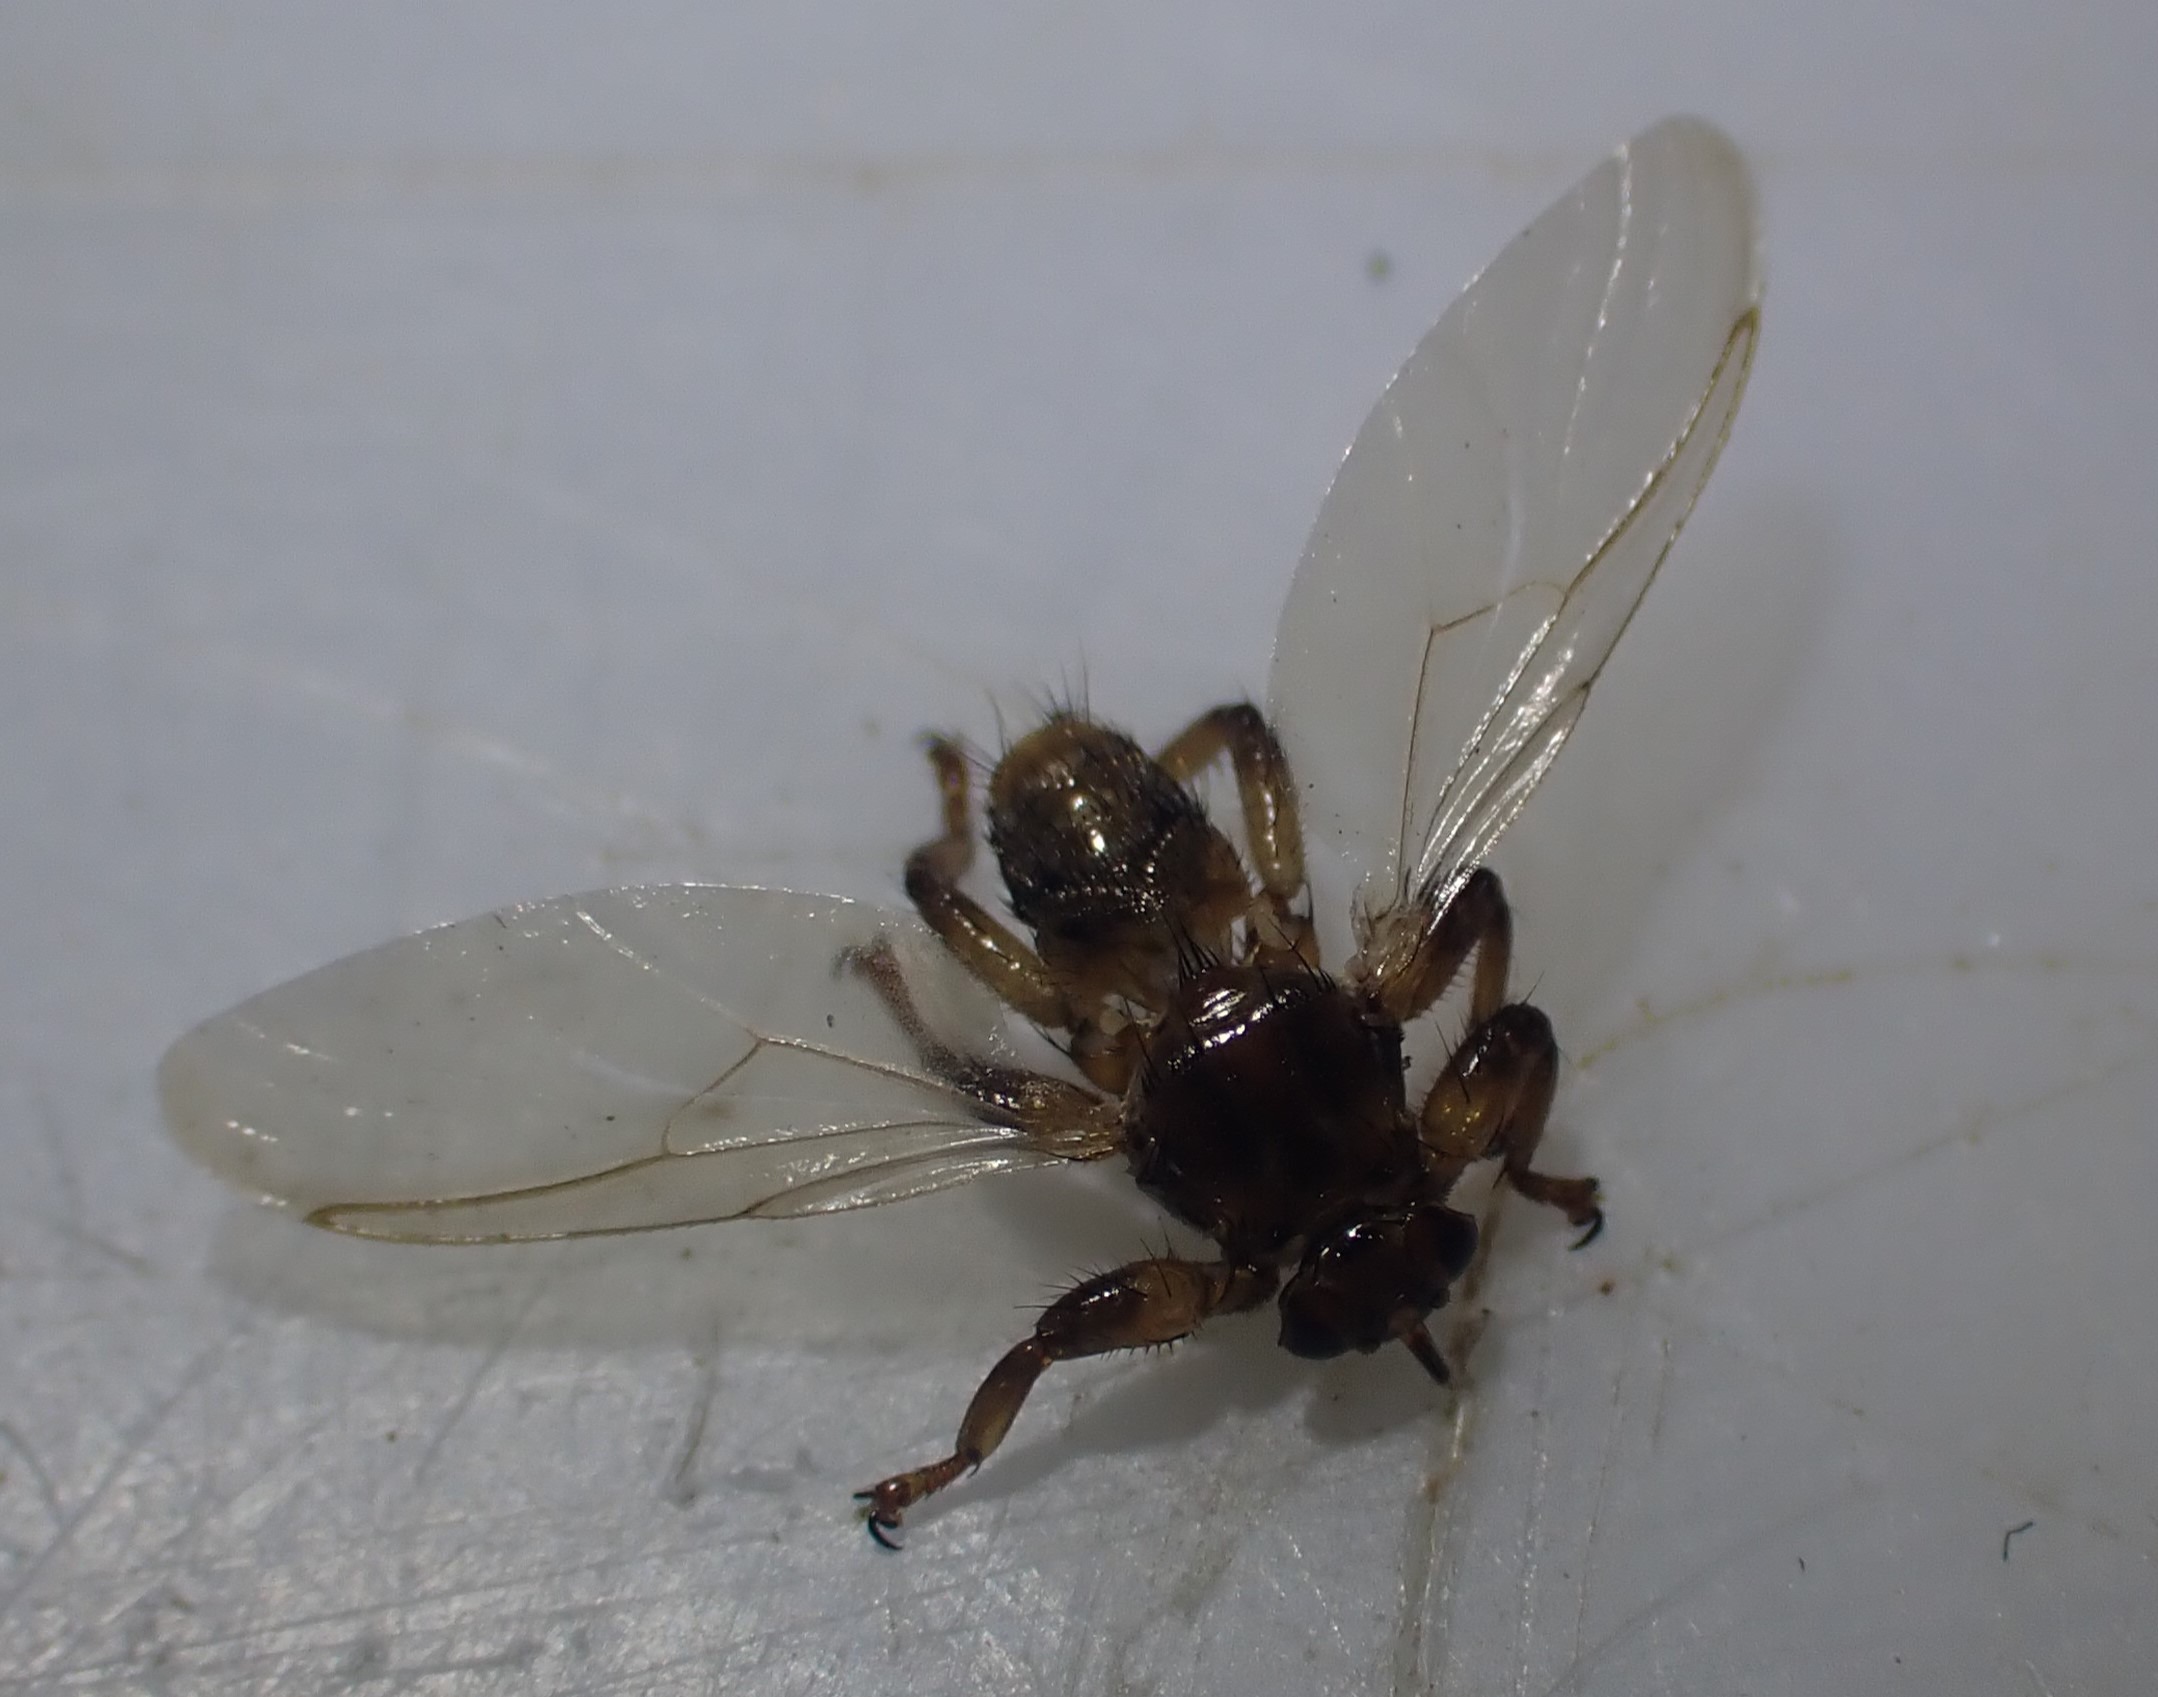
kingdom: Animalia
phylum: Arthropoda
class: Insecta
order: Diptera
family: Hippoboscidae
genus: Lipoptena
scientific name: Lipoptena cervi
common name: Hjortelus
